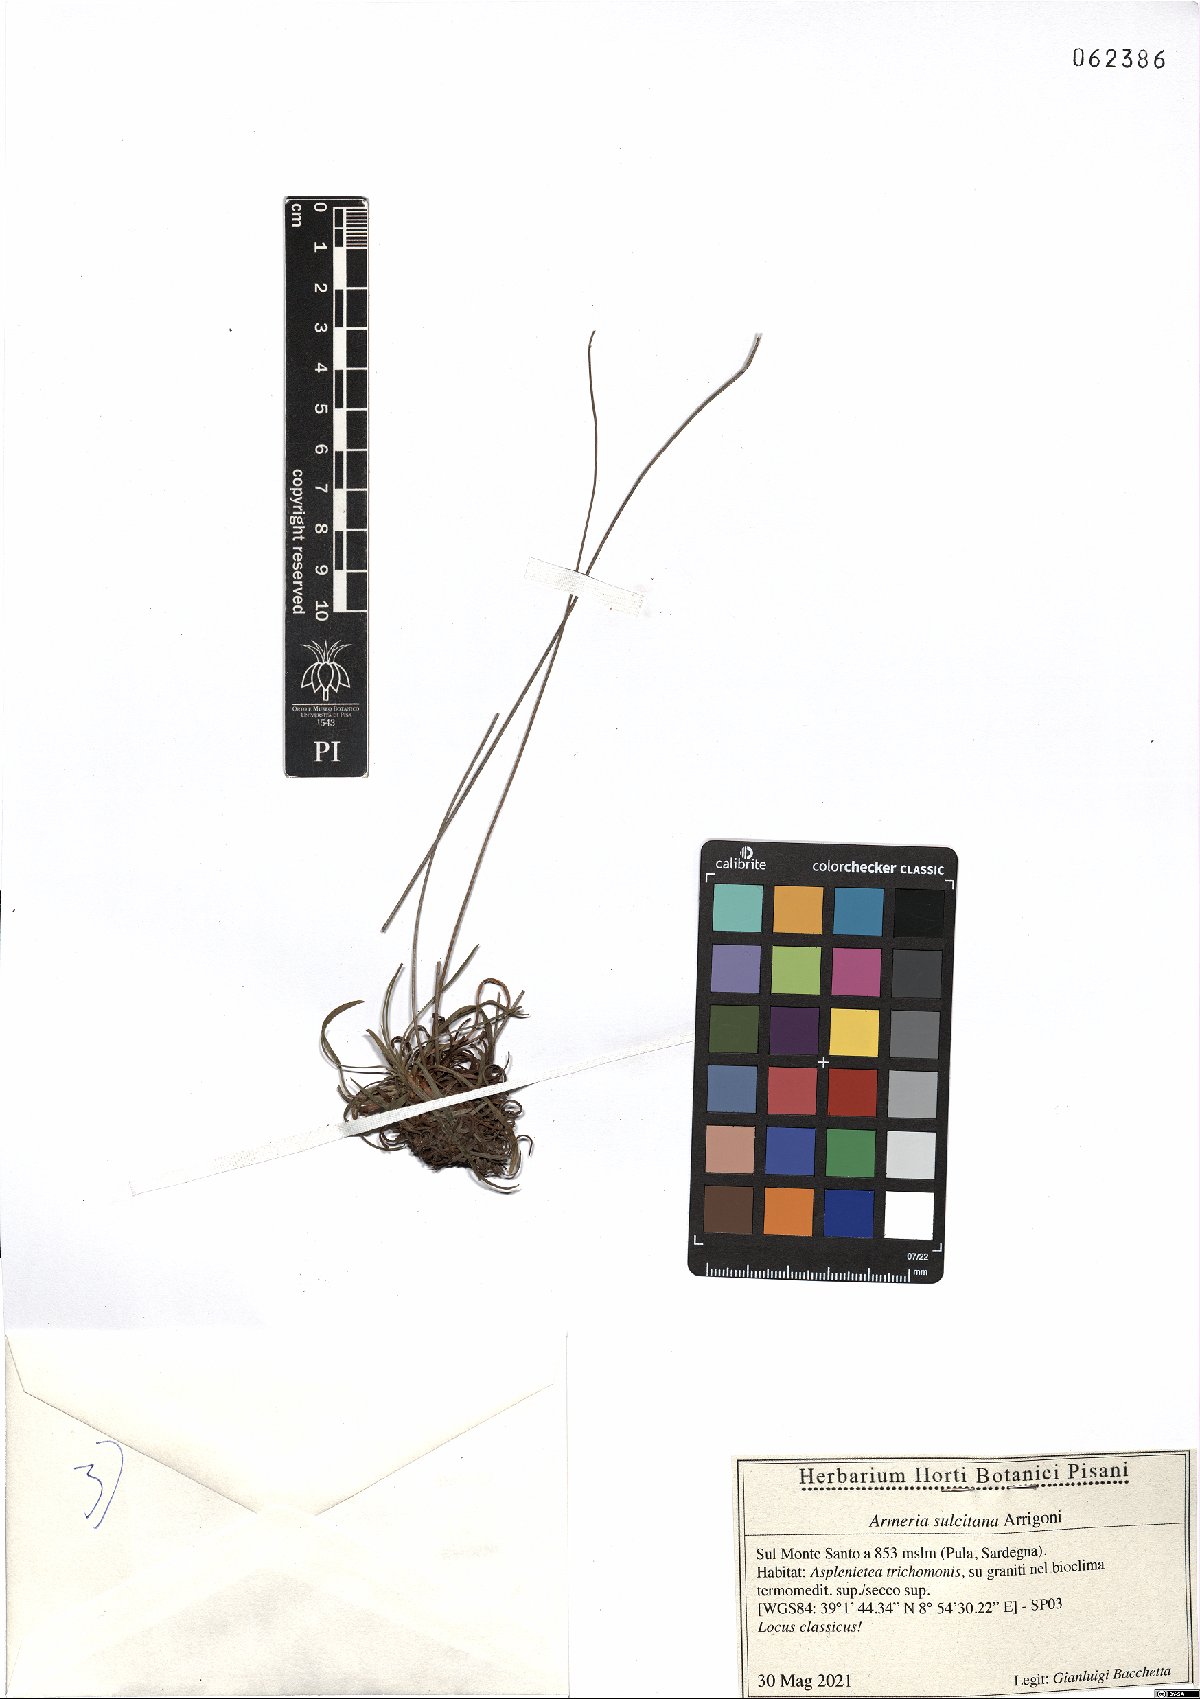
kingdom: Plantae
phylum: Tracheophyta
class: Magnoliopsida
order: Caryophyllales
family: Plumbaginaceae
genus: Armeria
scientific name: Armeria sulcitana
